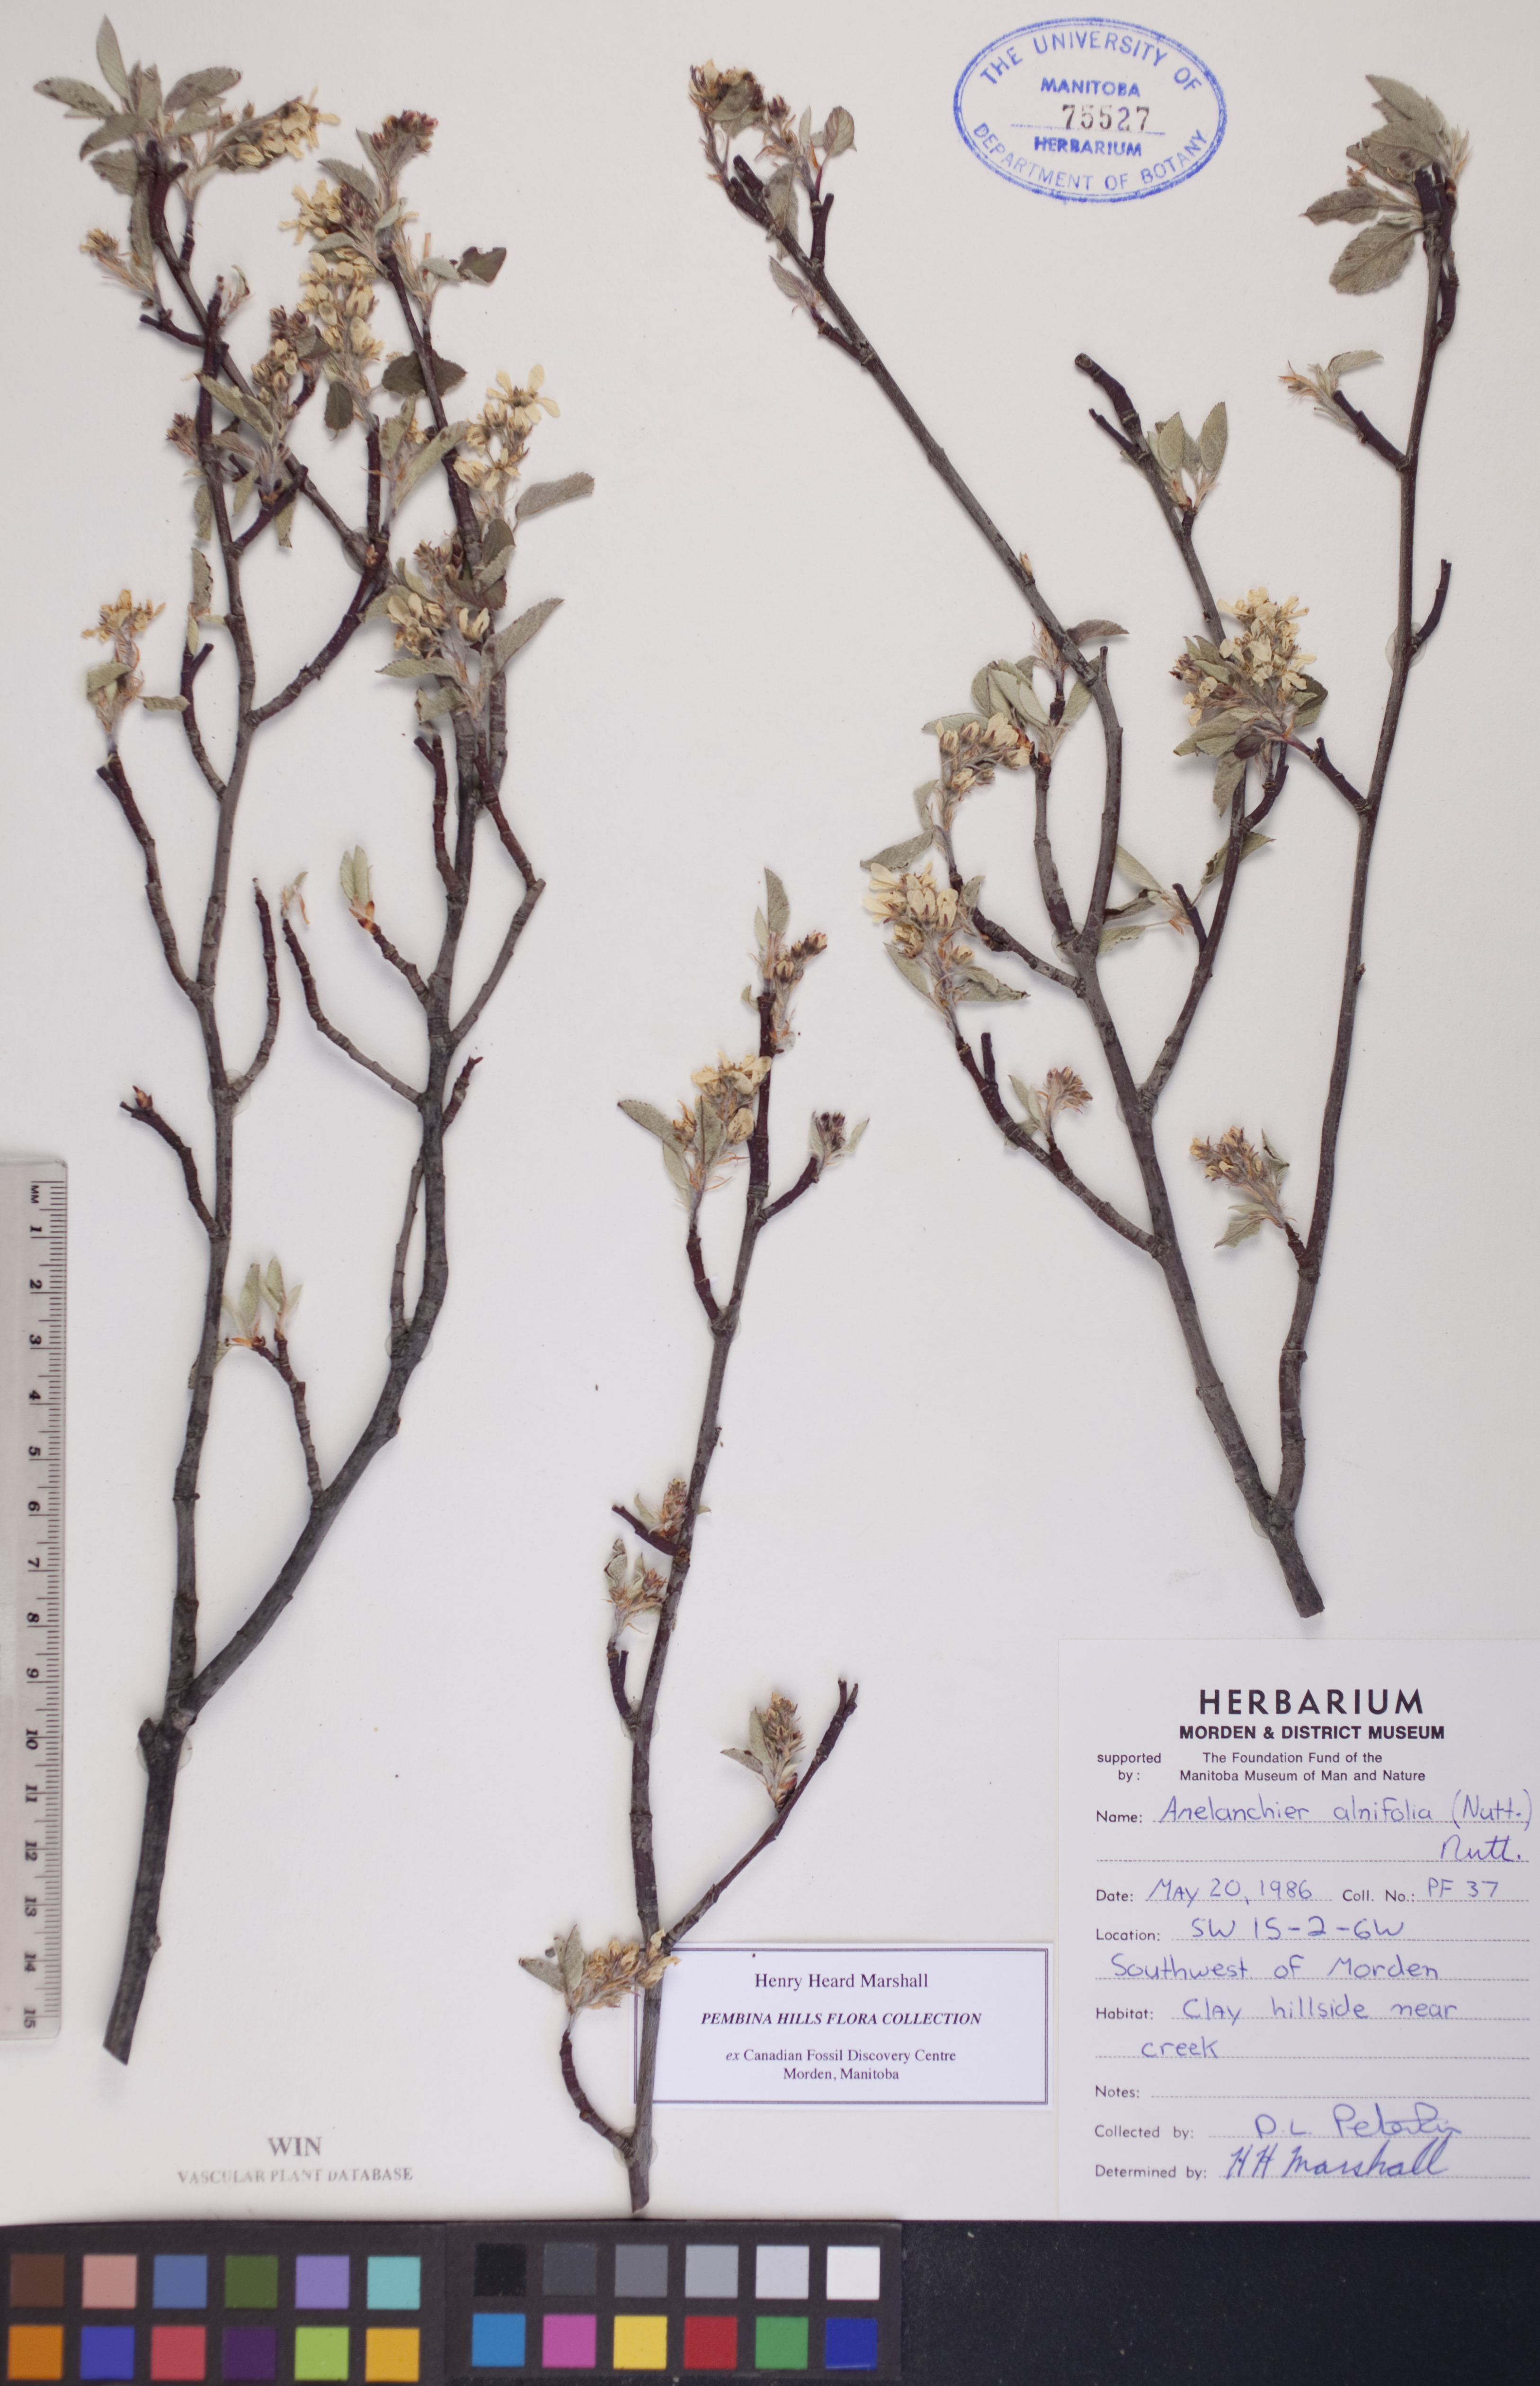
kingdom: Plantae
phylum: Tracheophyta
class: Magnoliopsida
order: Rosales
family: Rosaceae
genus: Amelanchier
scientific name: Amelanchier alnifolia
